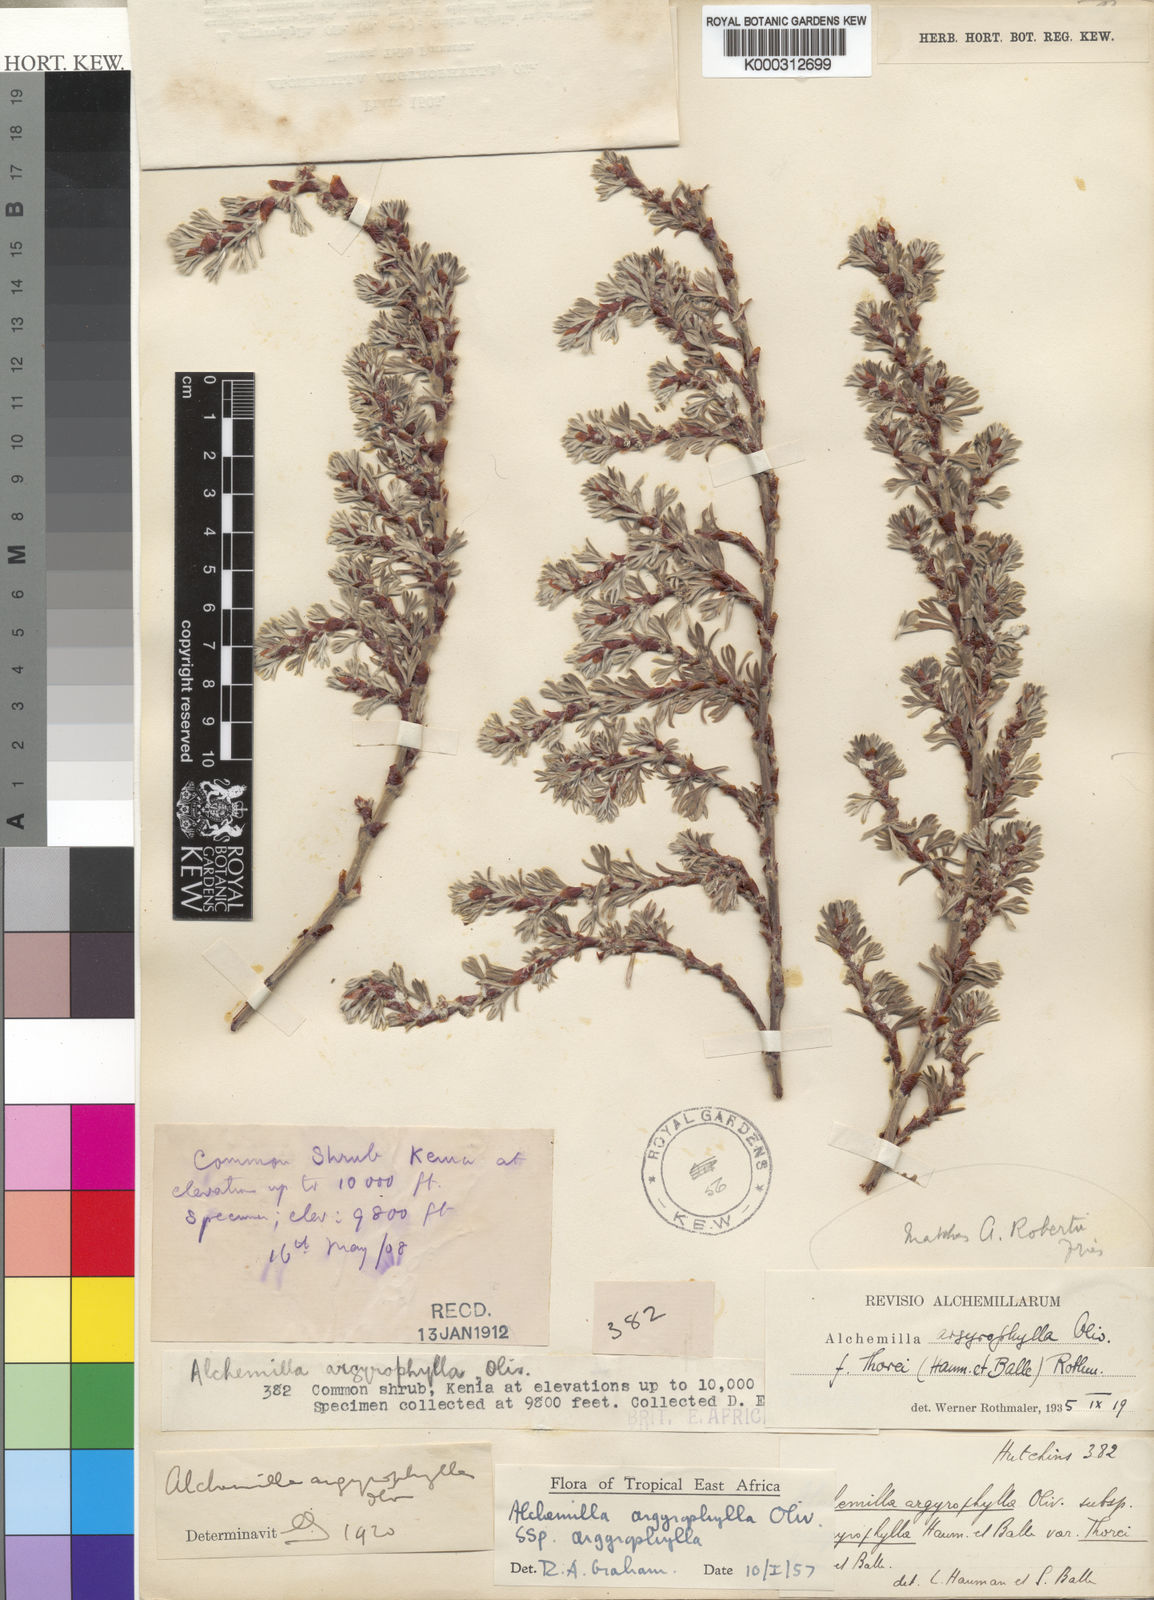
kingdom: Plantae
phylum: Tracheophyta
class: Magnoliopsida
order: Rosales
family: Rosaceae
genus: Alchemilla
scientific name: Alchemilla argyrophylla
